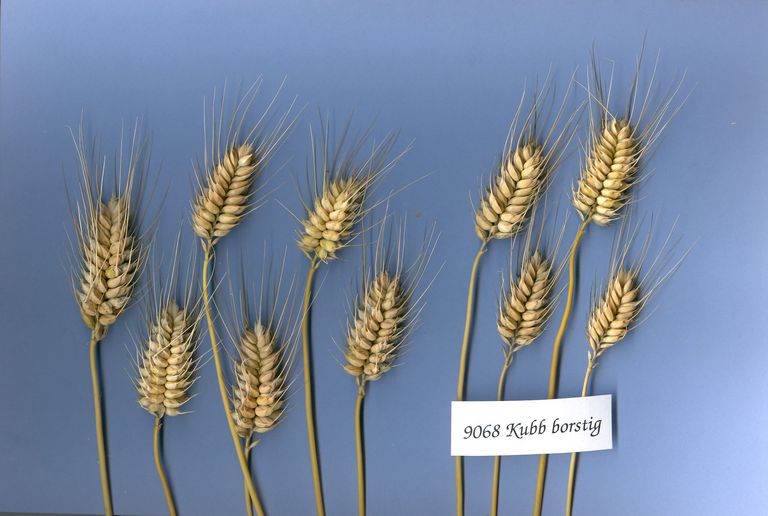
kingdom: Plantae
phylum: Tracheophyta
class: Liliopsida
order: Poales
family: Poaceae
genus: Triticum
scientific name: Triticum aestivum
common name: Common wheat
